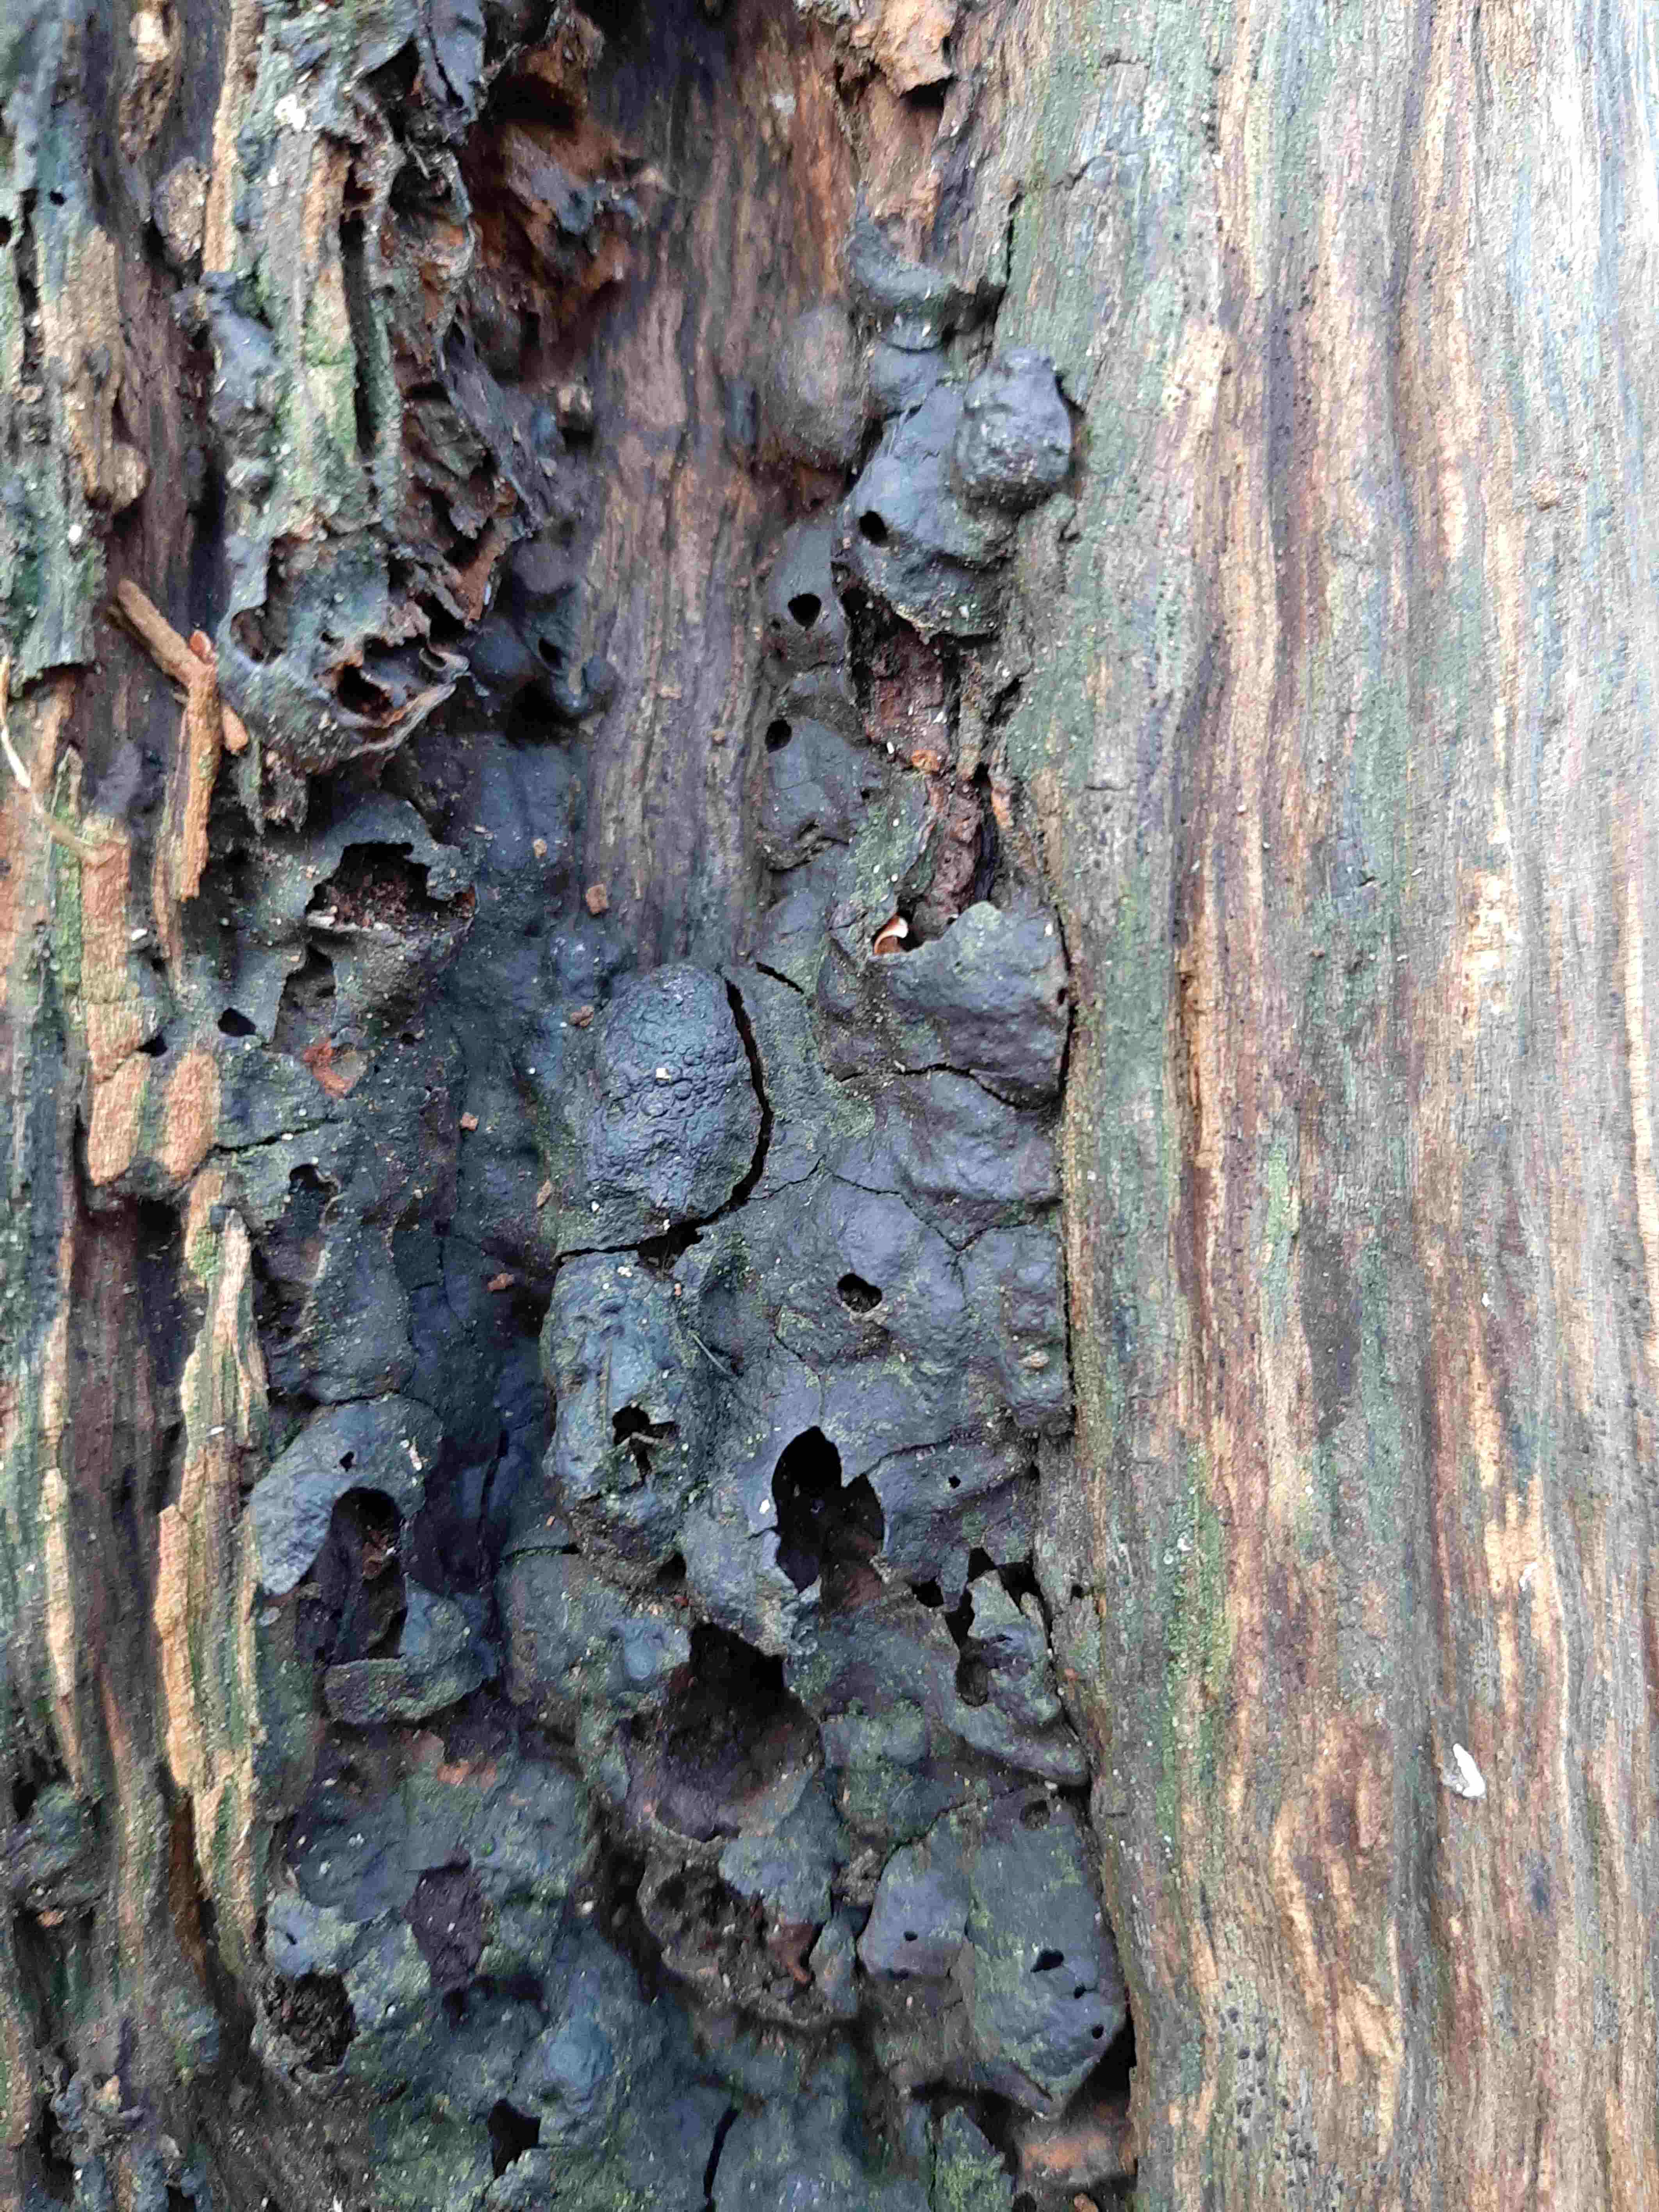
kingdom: Fungi
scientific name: Fungi
